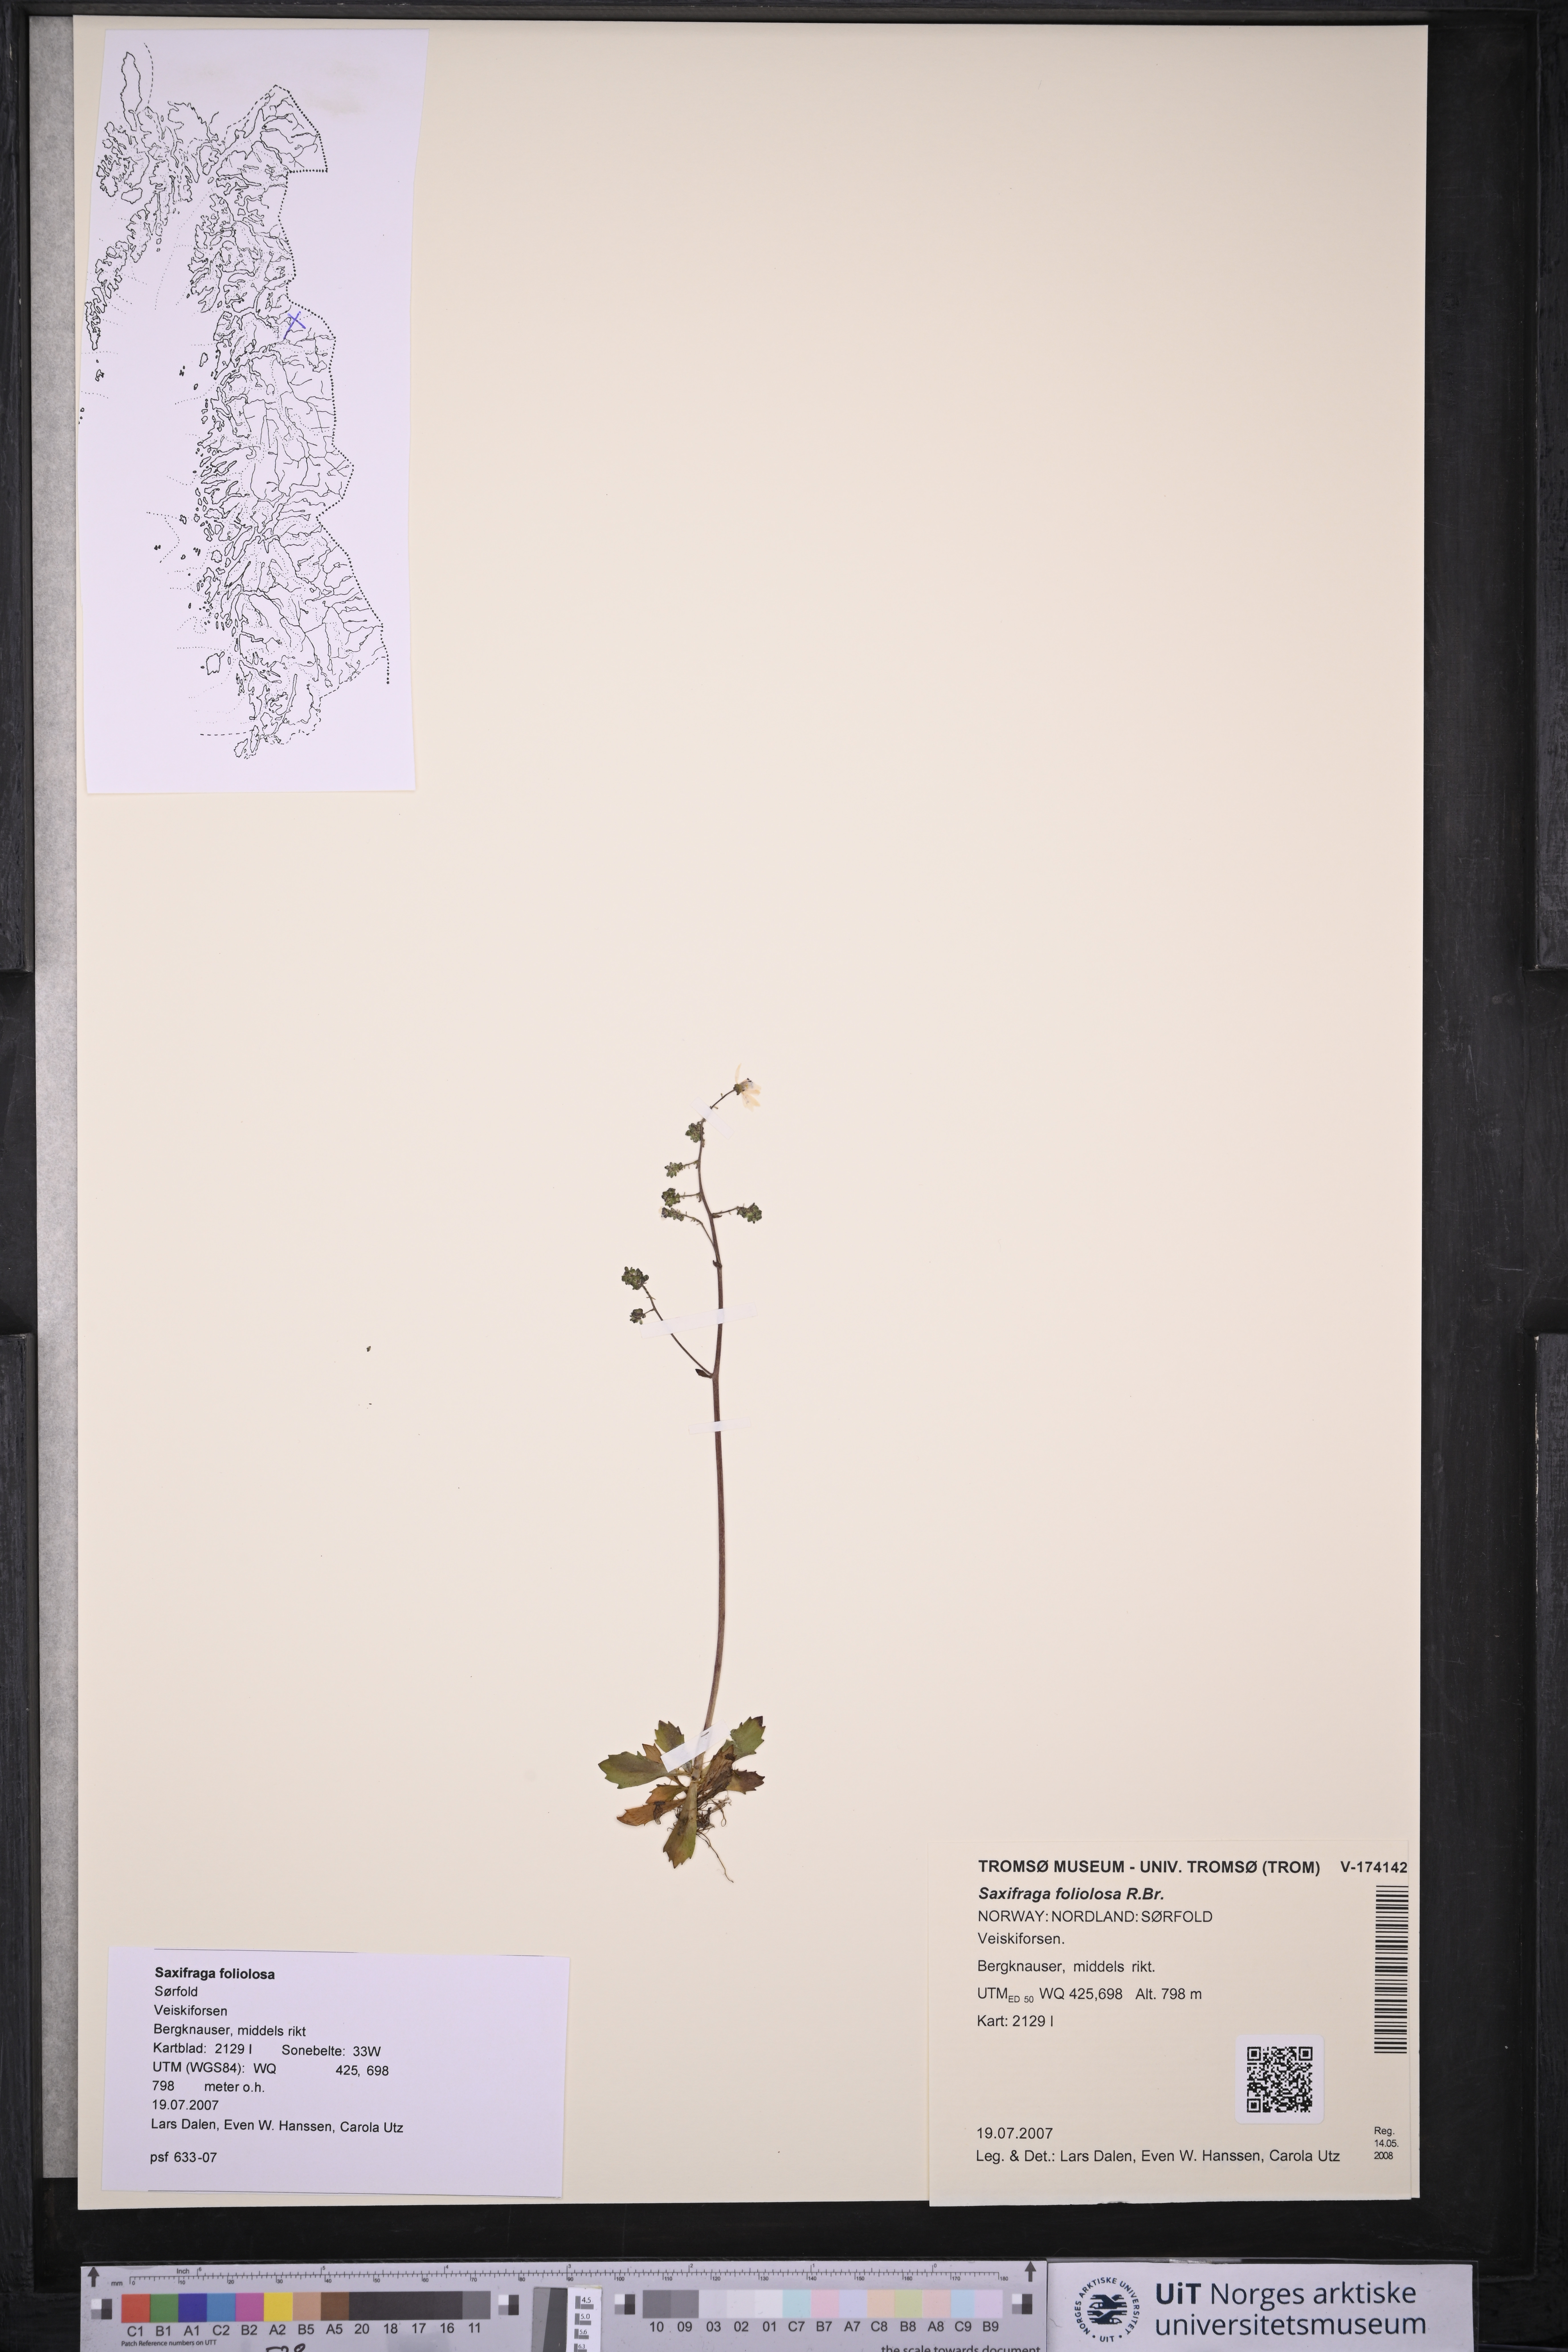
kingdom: Plantae
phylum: Tracheophyta
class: Magnoliopsida
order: Saxifragales
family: Saxifragaceae
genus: Micranthes
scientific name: Micranthes foliolosa
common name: Leafystem saxifrage
